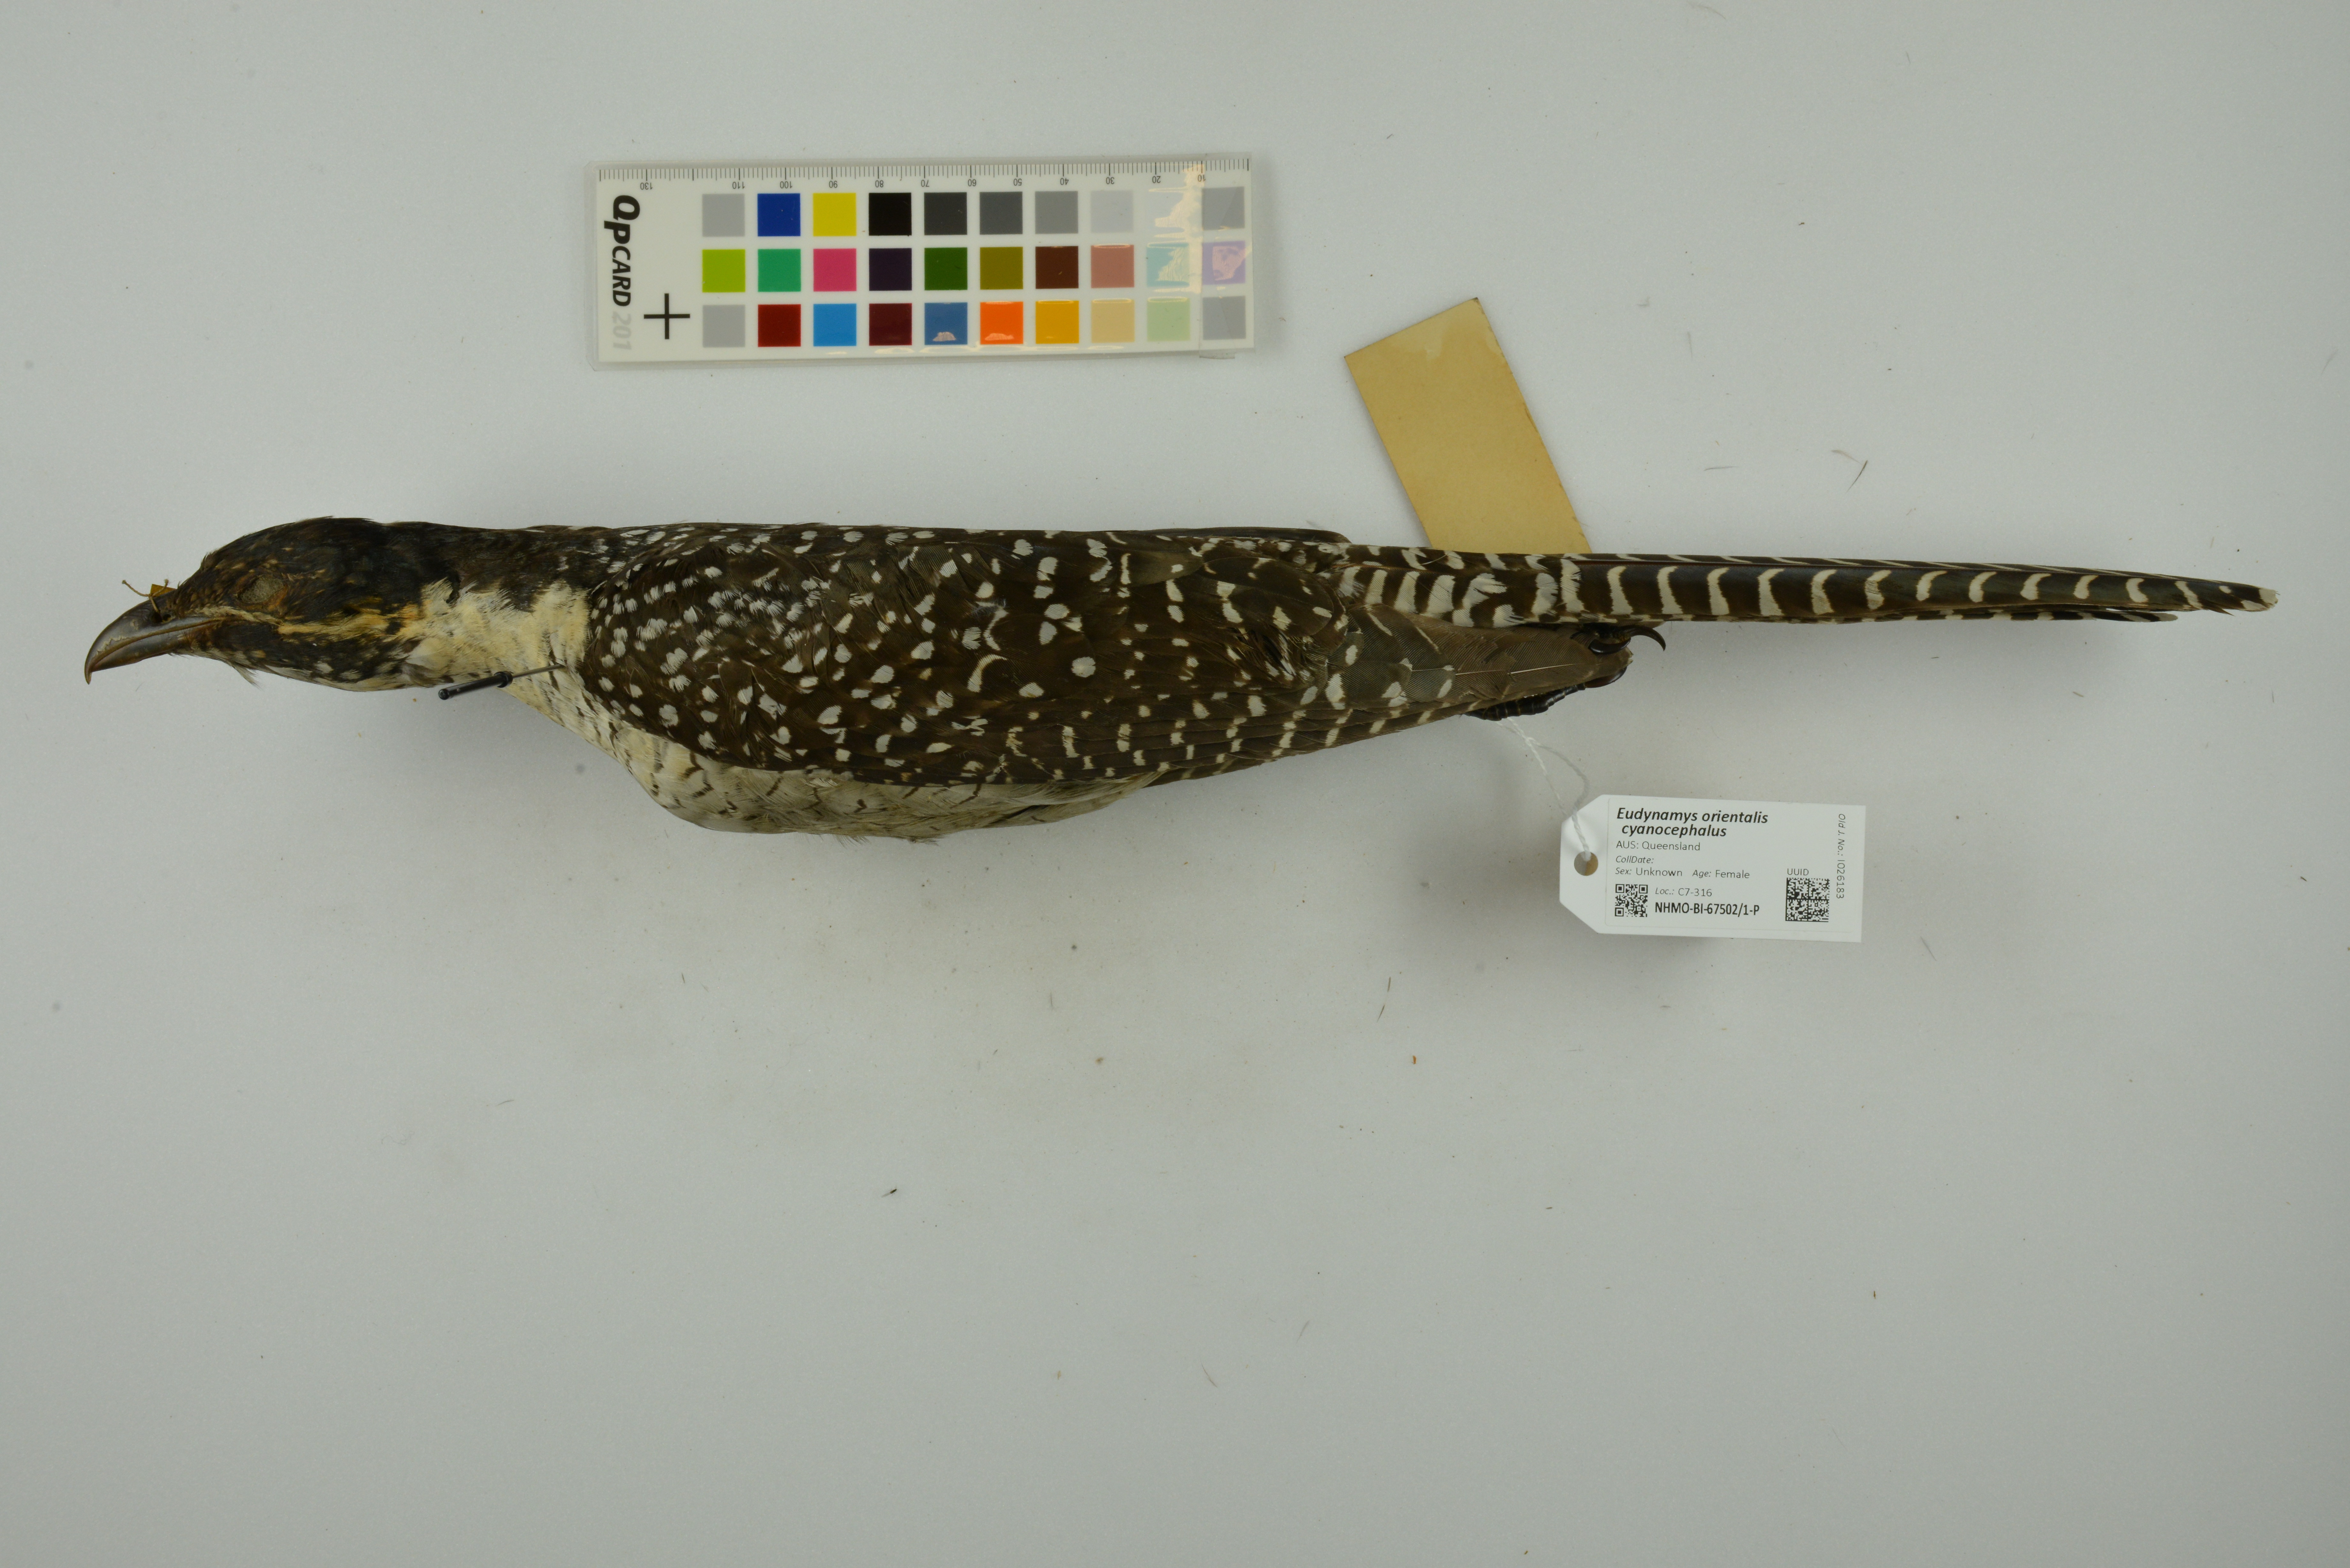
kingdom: Animalia
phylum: Chordata
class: Aves
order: Cuculiformes
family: Cuculidae
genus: Eudynamys
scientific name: Eudynamys scolopaceus
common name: Asian koel
